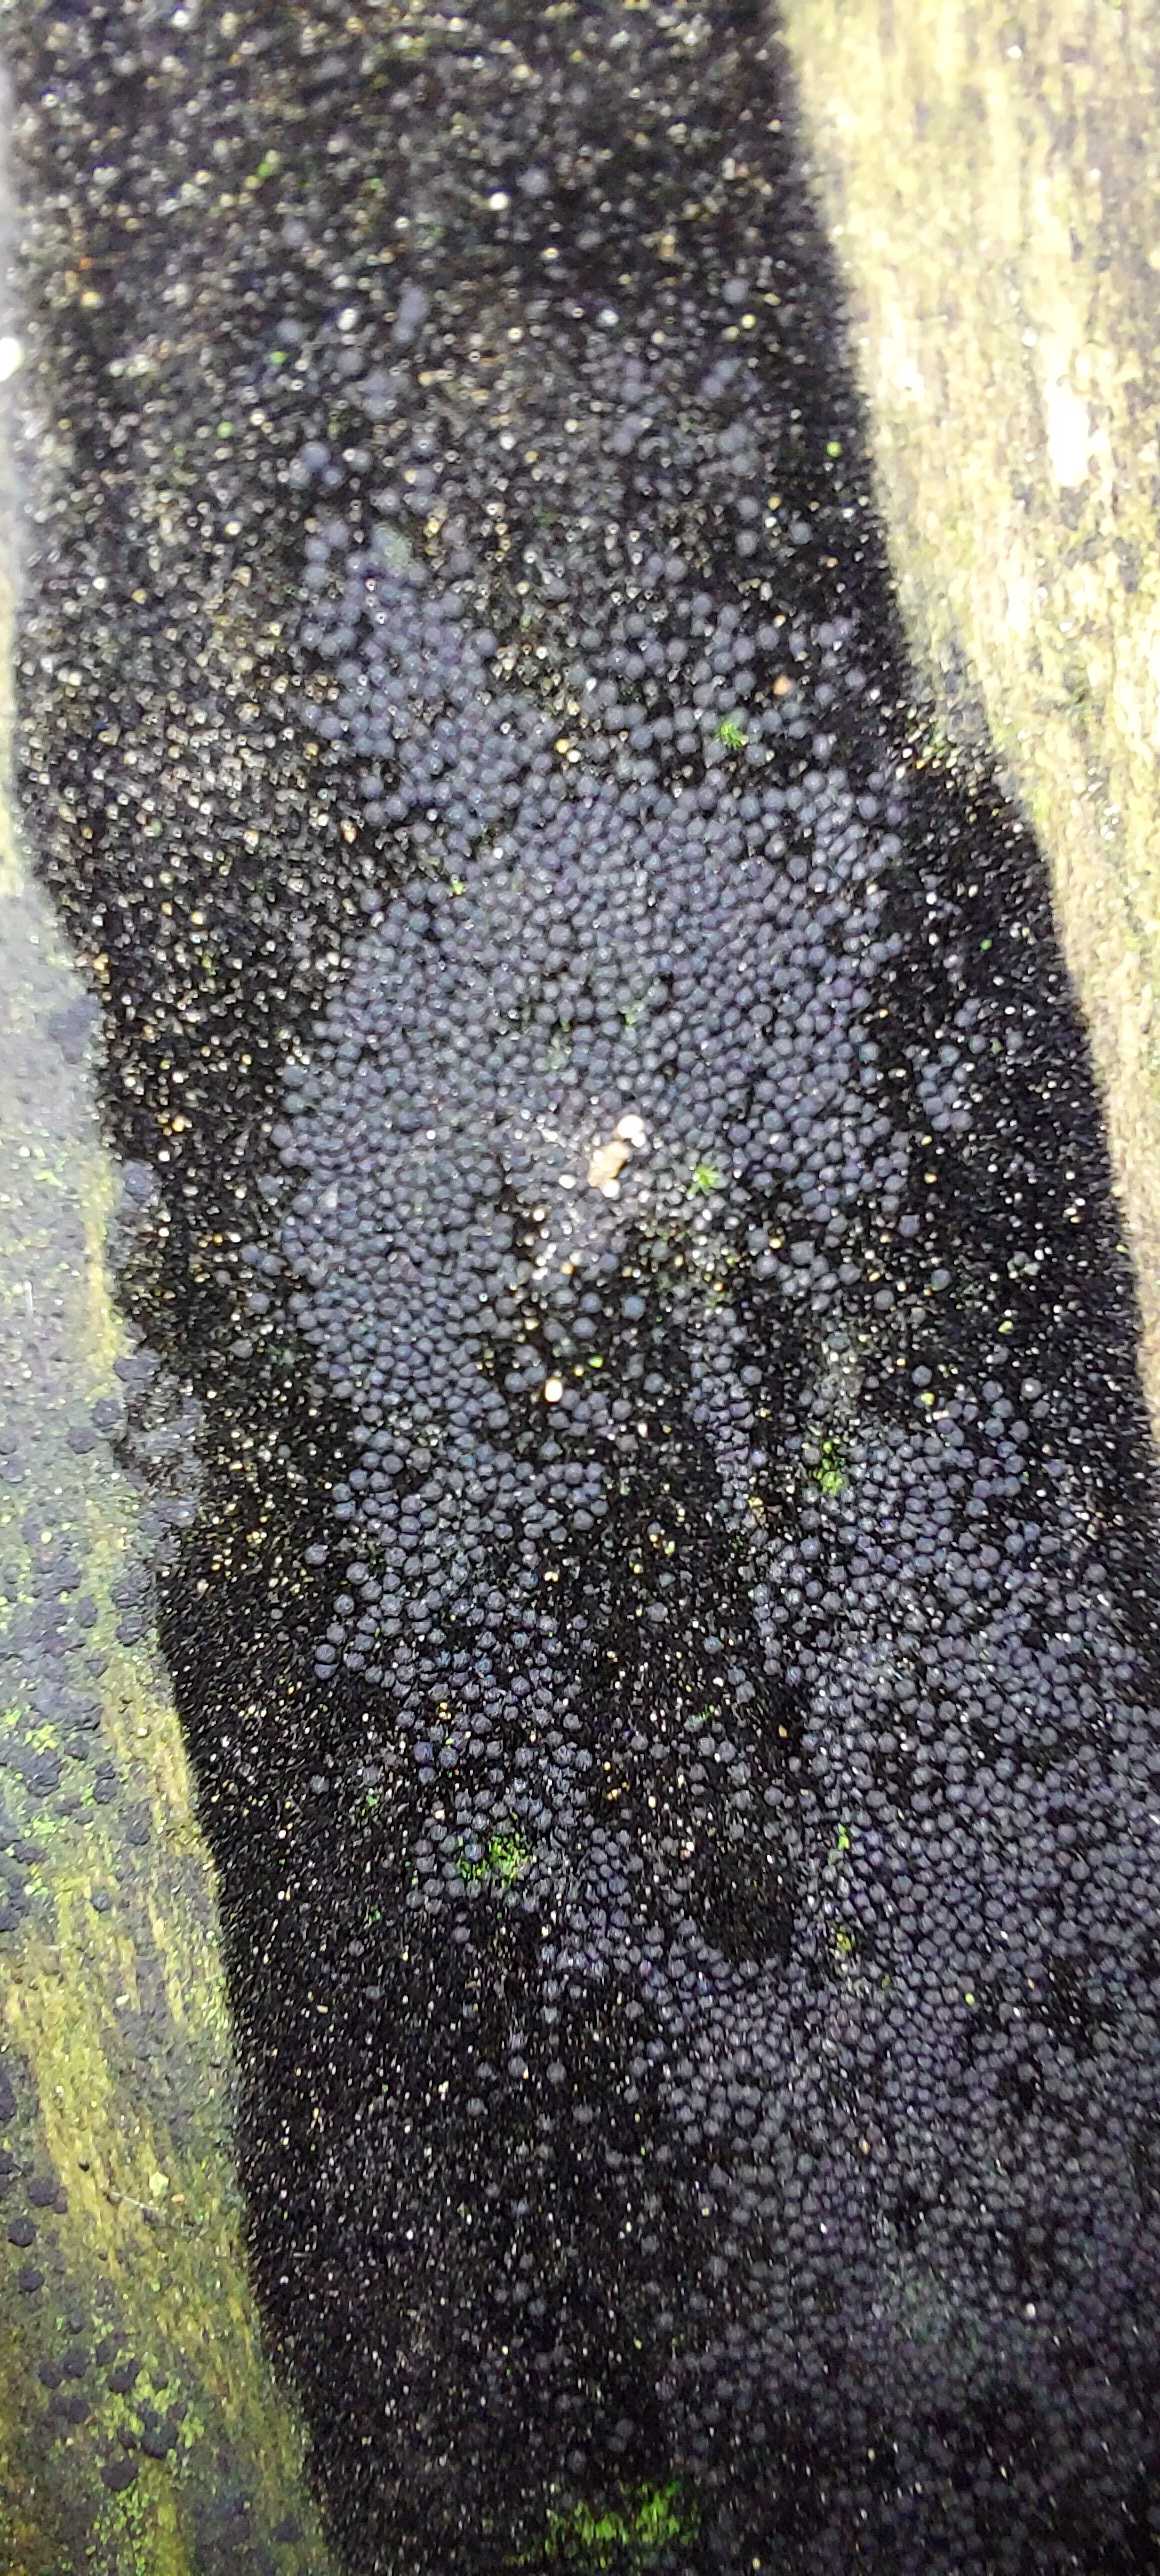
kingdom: Fungi
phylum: Ascomycota
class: Sordariomycetes
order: Coronophorales
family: Chaetosphaerellaceae
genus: Chaetosphaerella
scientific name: Chaetosphaerella phaeostroma
